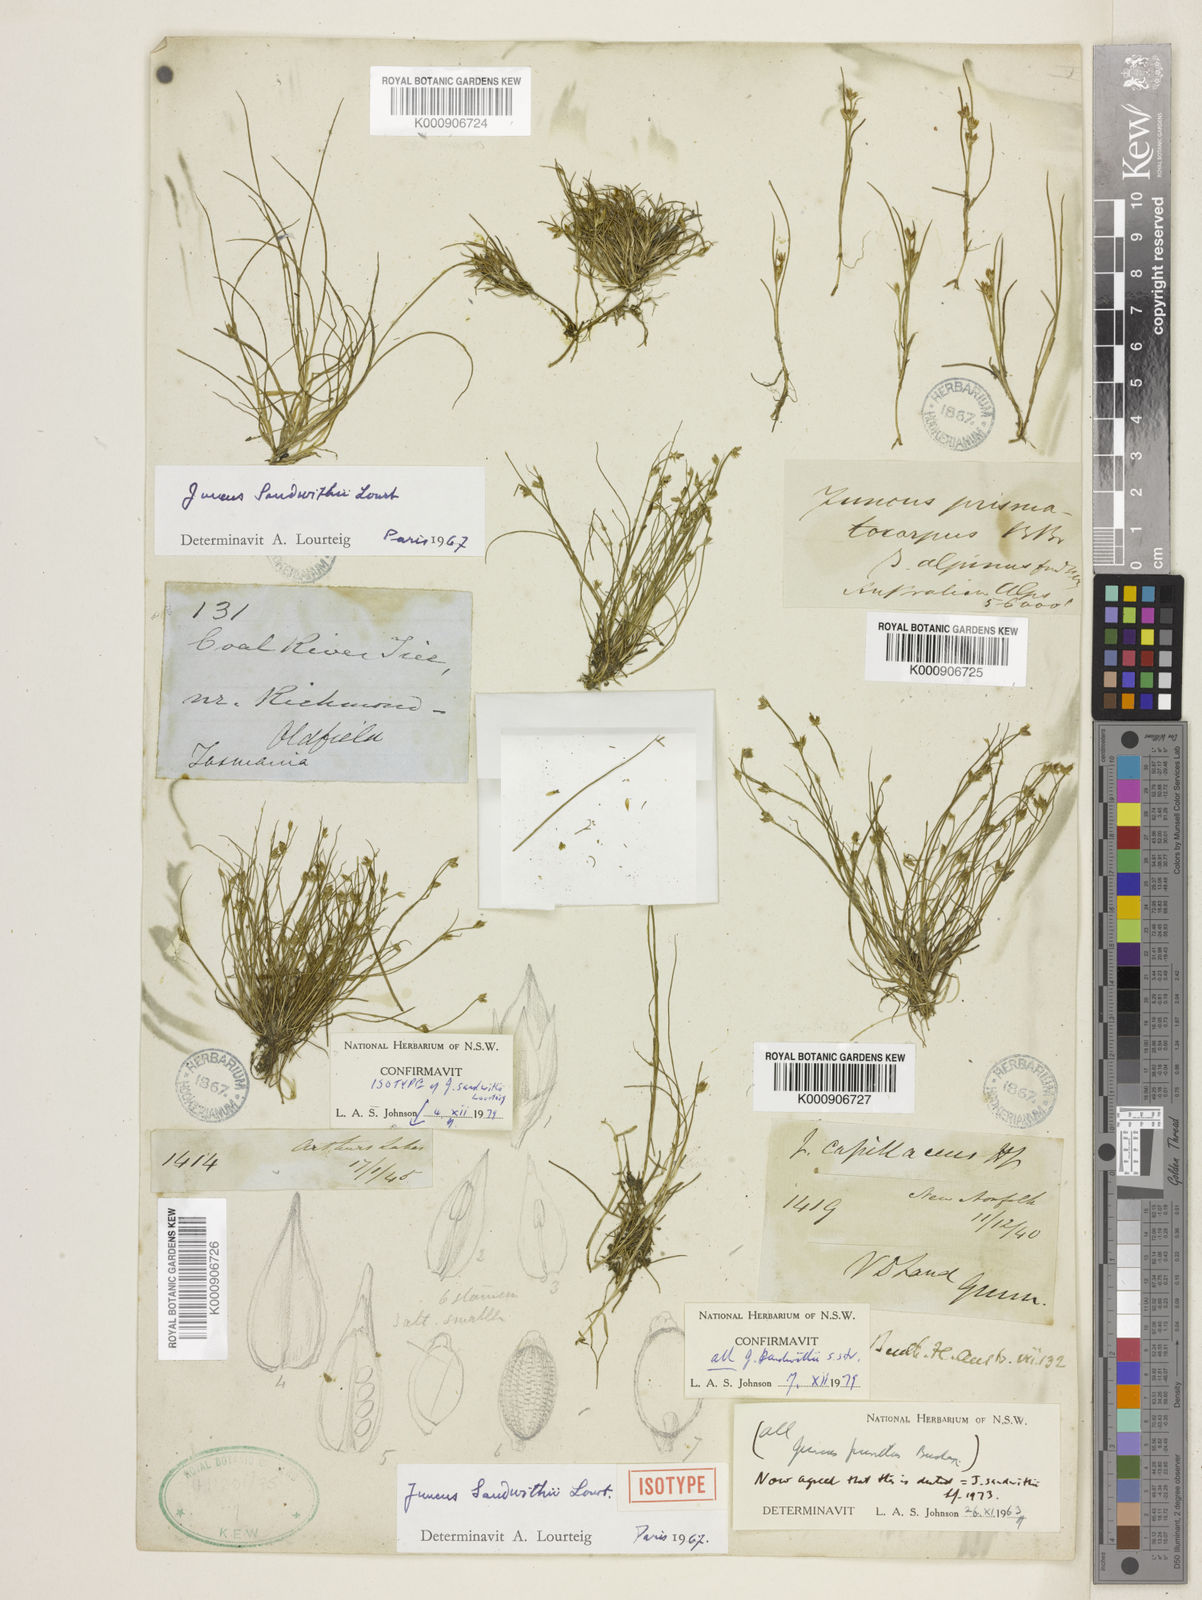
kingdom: Plantae
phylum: Tracheophyta
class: Liliopsida
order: Poales
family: Juncaceae
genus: Juncus
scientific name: Juncus sandwithii
